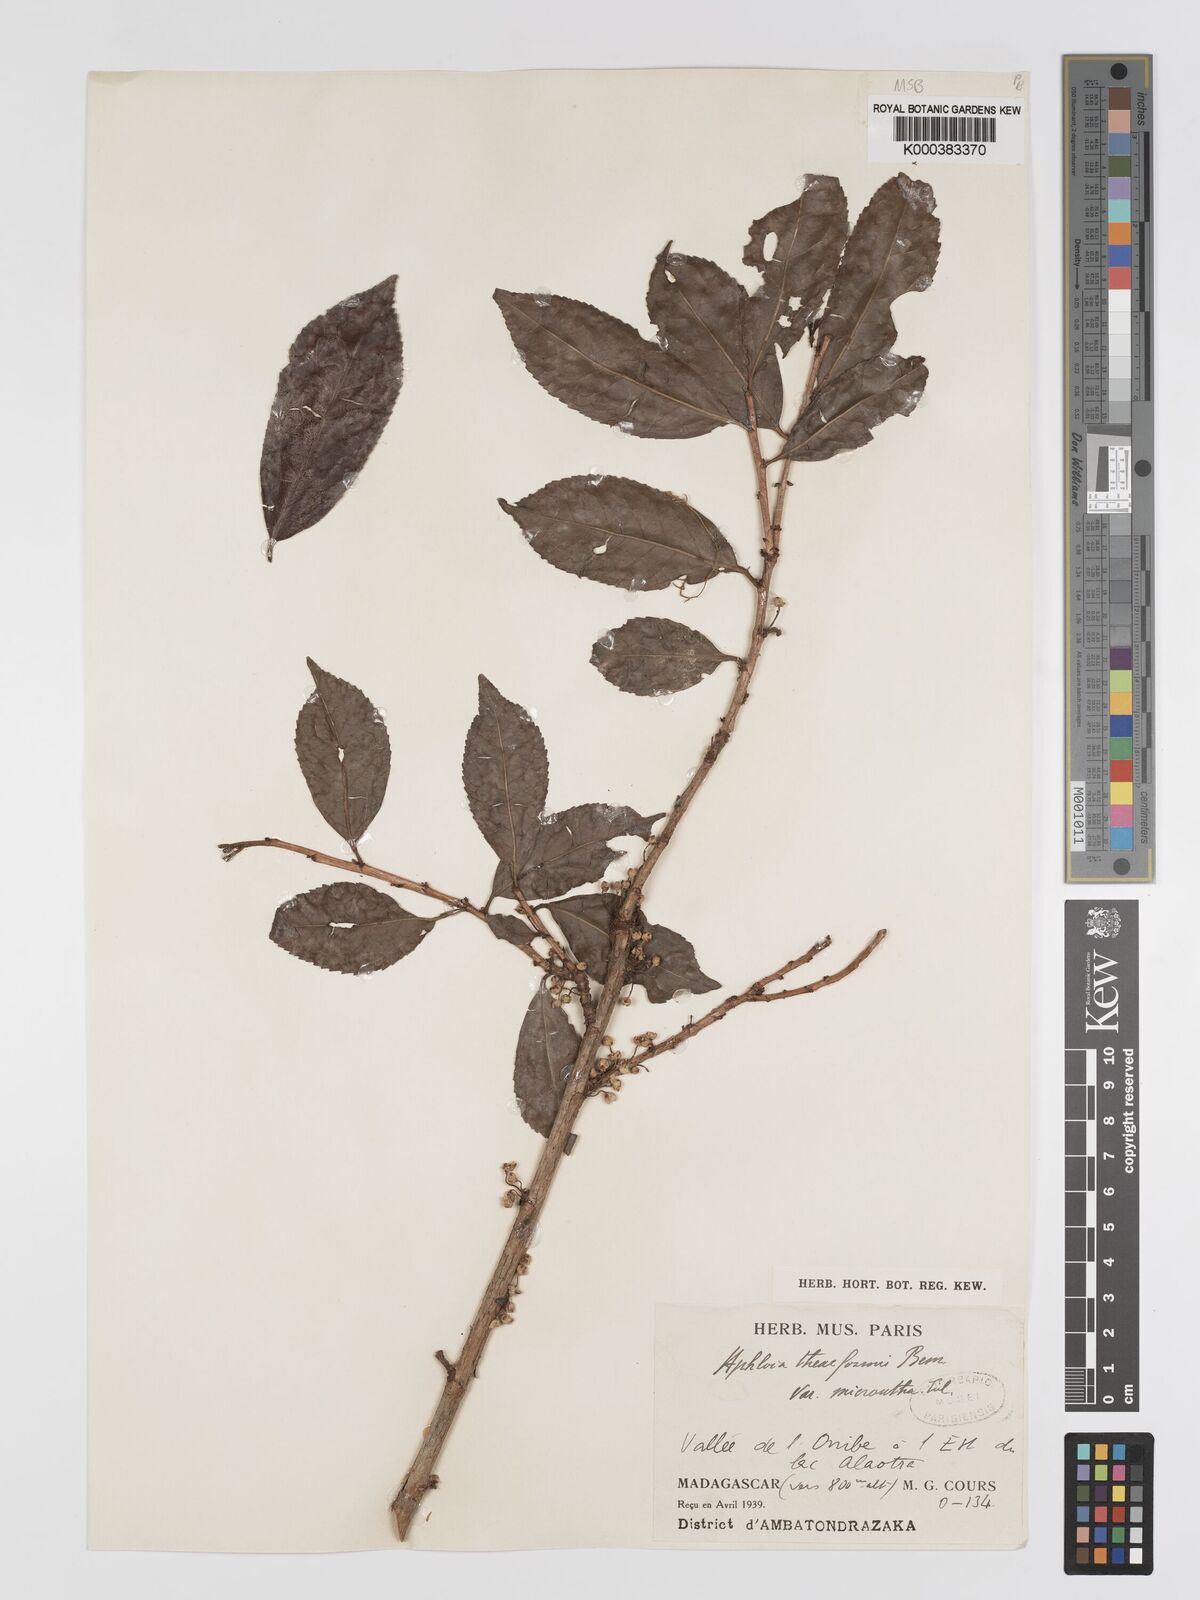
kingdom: Plantae
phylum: Tracheophyta
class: Magnoliopsida
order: Crossosomatales
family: Aphloiaceae
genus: Aphloia
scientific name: Aphloia theiformis
